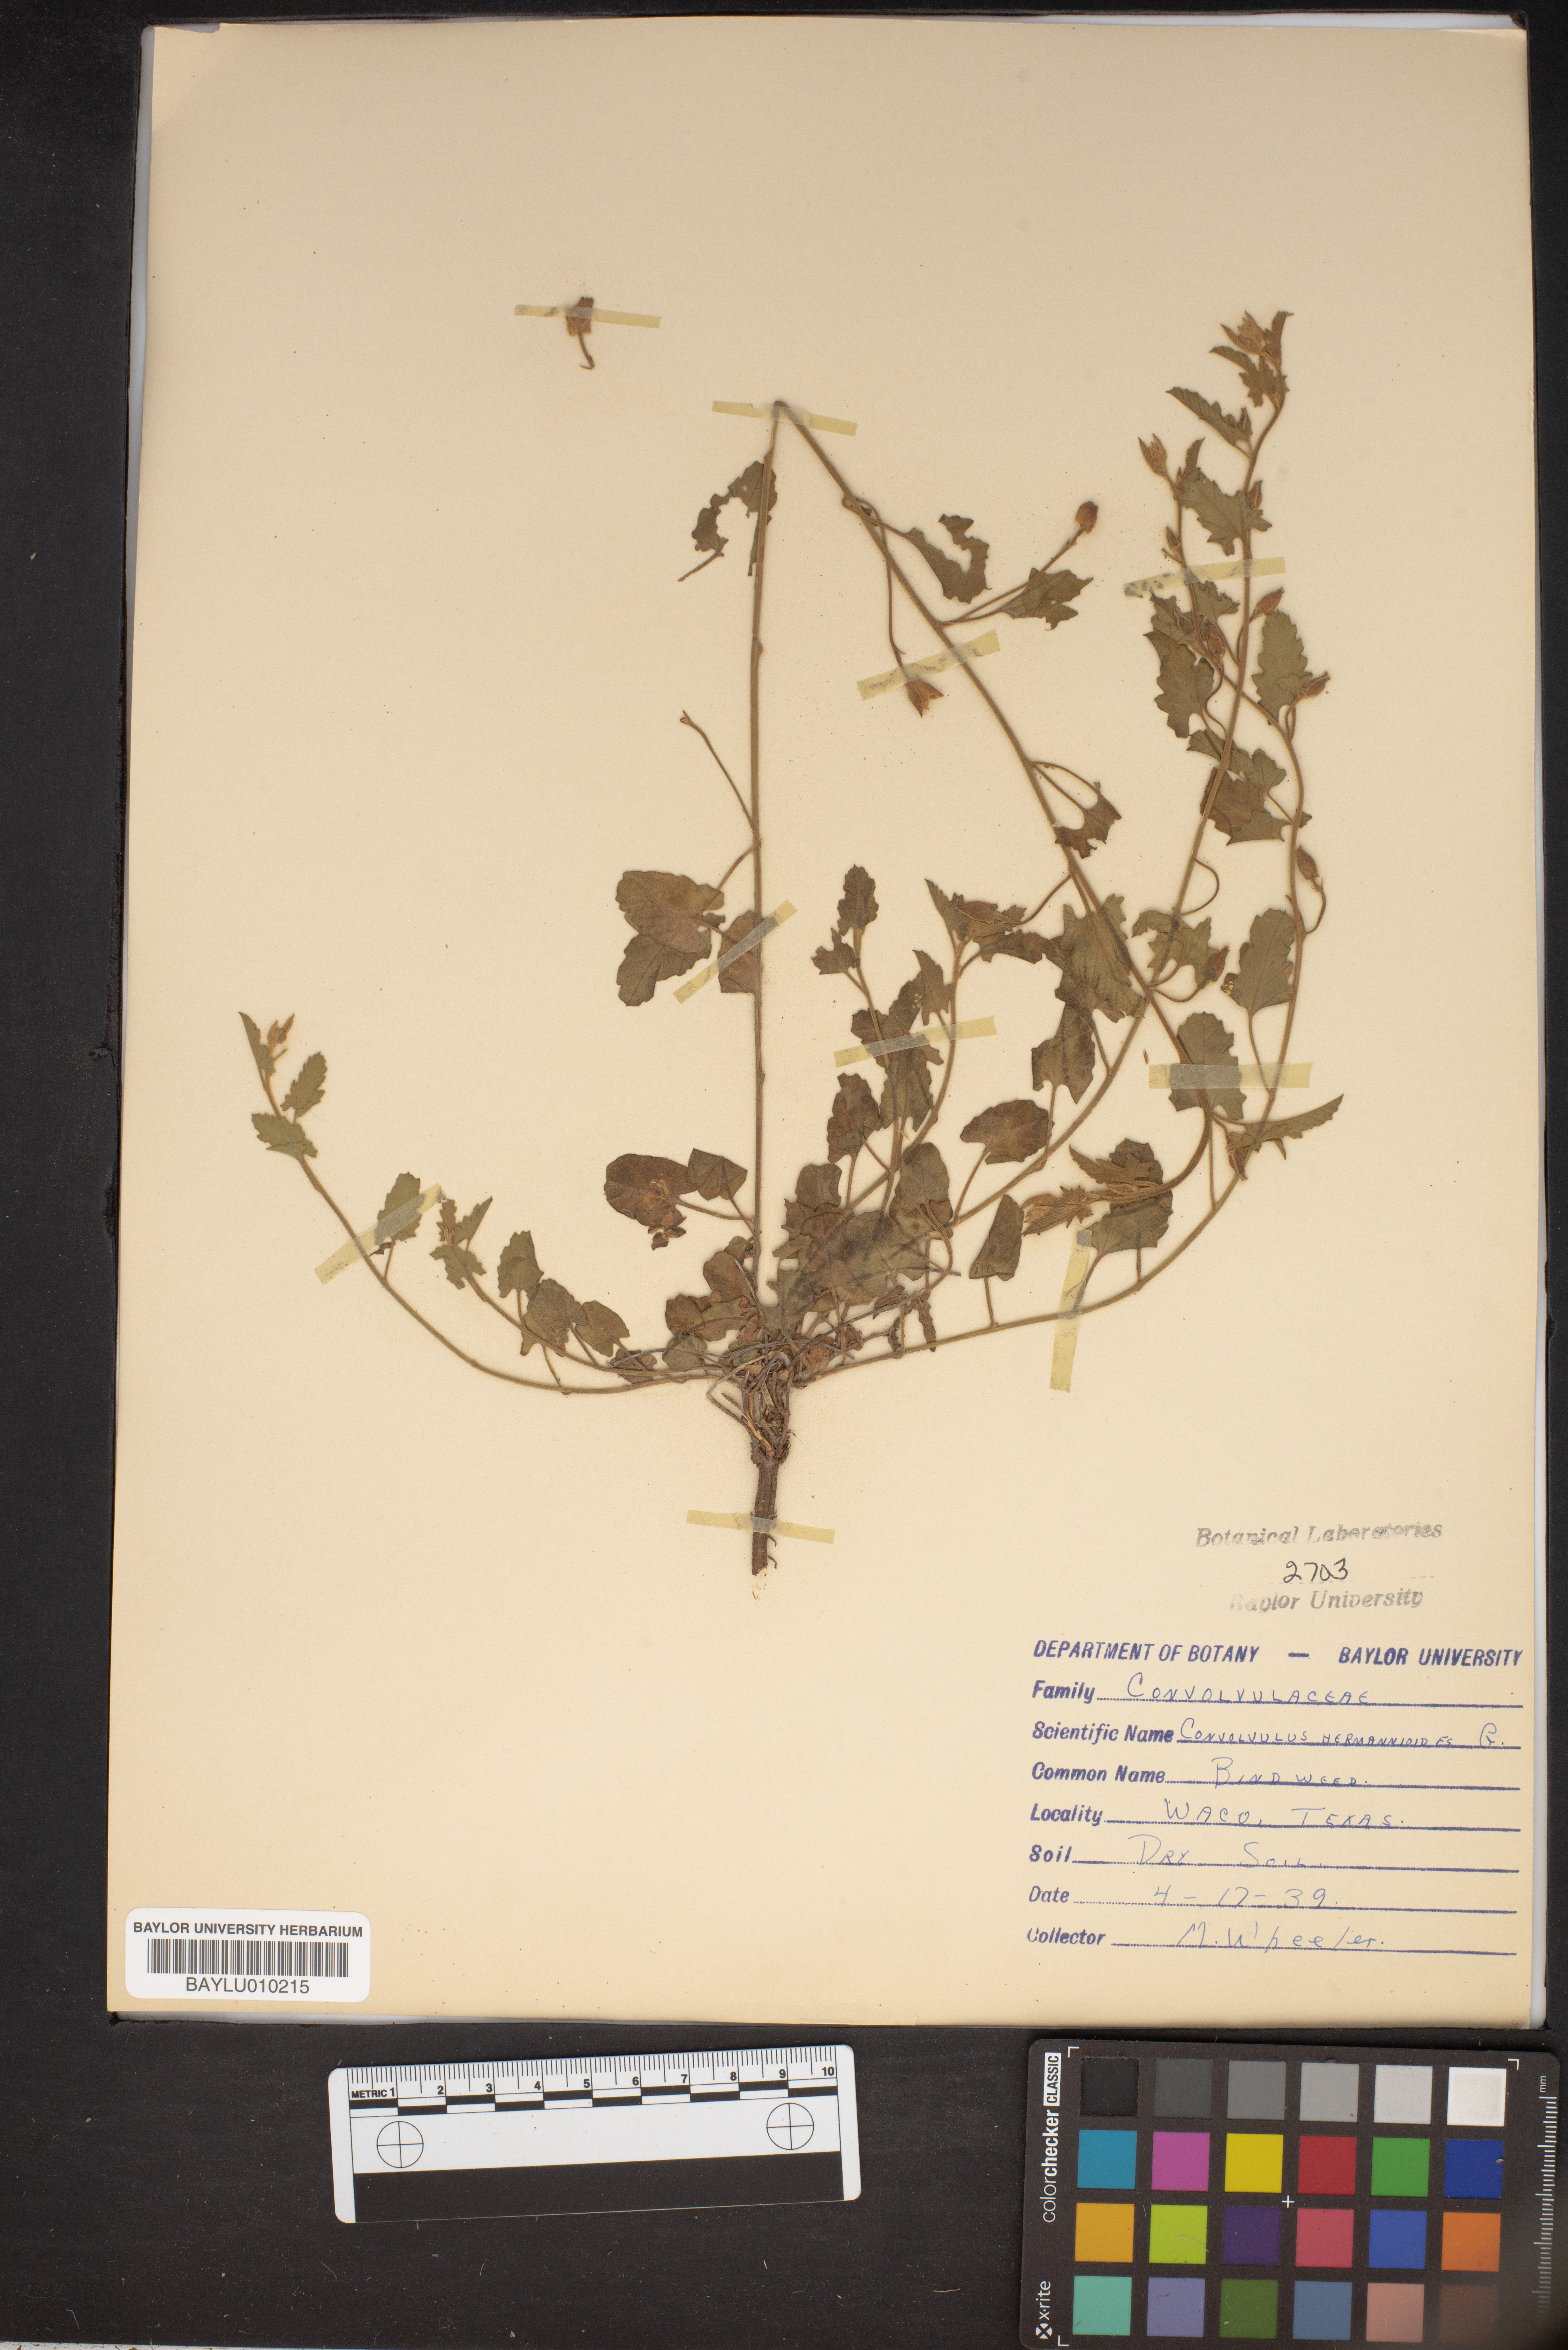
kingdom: Plantae
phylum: Tracheophyta
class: Magnoliopsida
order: Solanales
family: Convolvulaceae
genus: Convolvulus
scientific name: Convolvulus hermanniae
